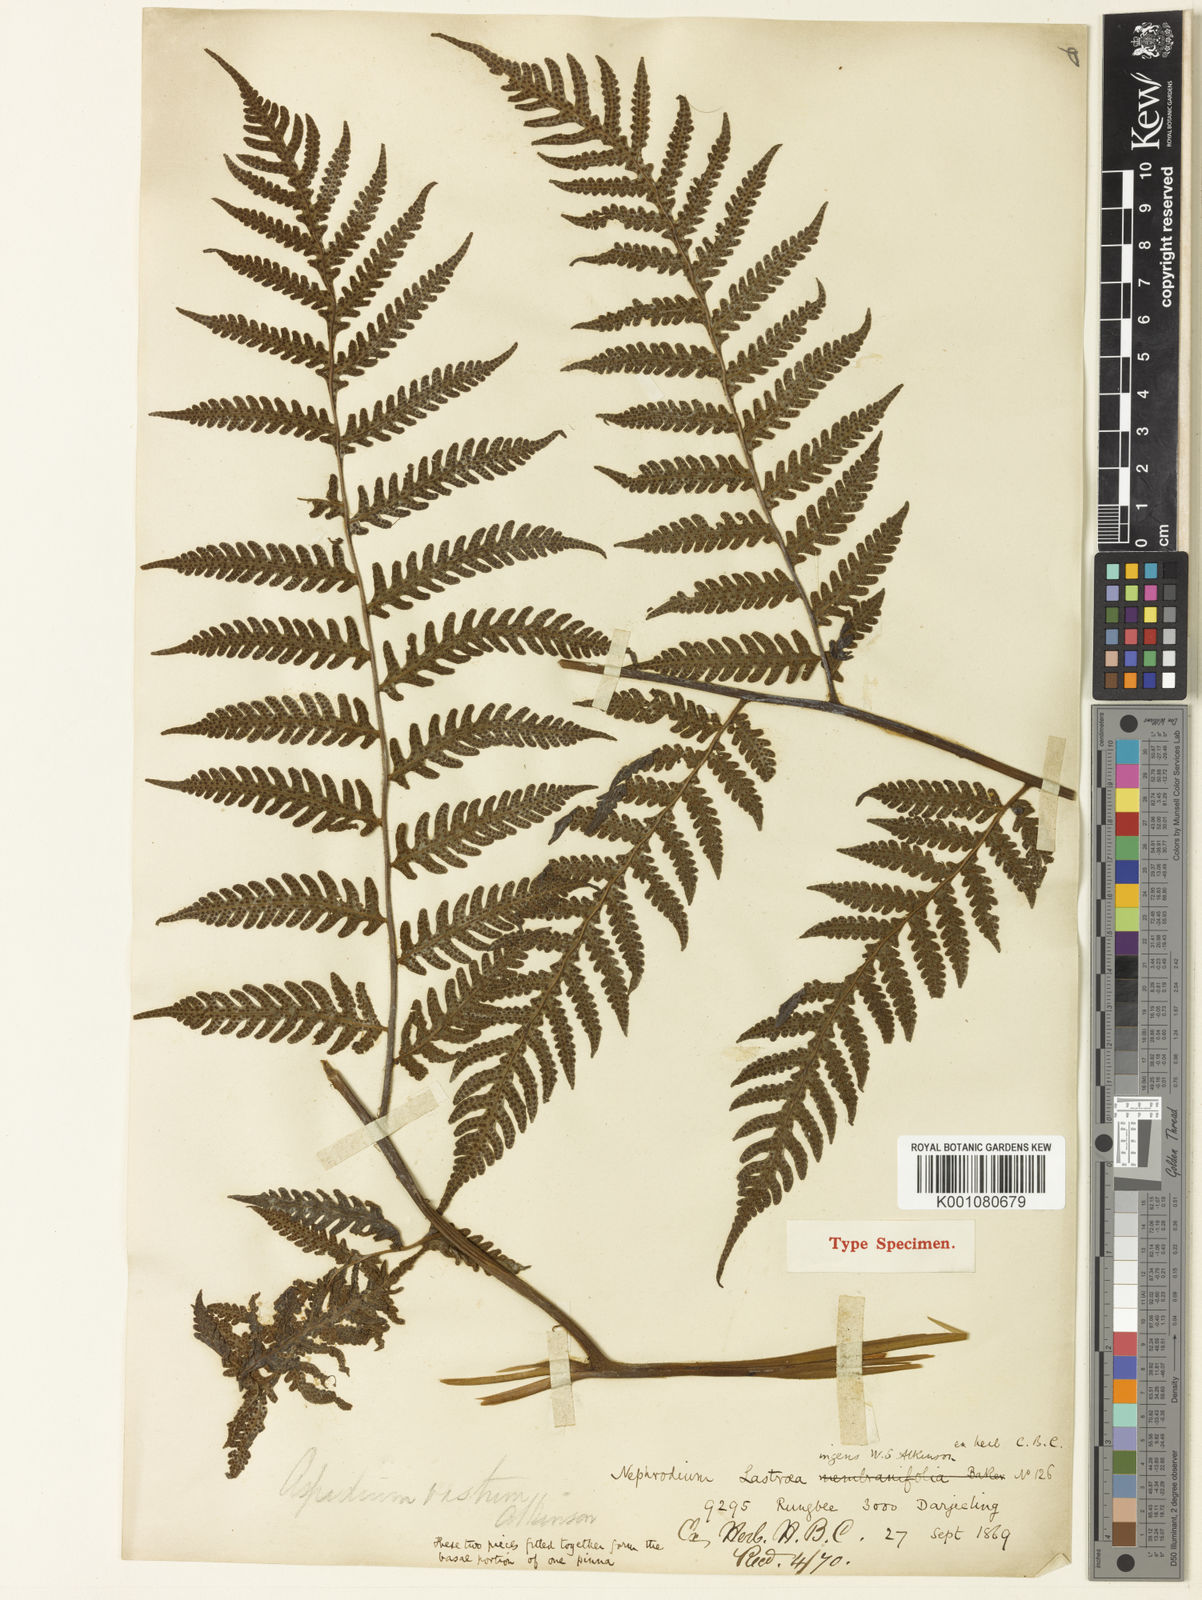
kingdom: Plantae
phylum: Tracheophyta
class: Polypodiopsida
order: Polypodiales
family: Tectariaceae
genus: Tectaria
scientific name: Tectaria ingens
